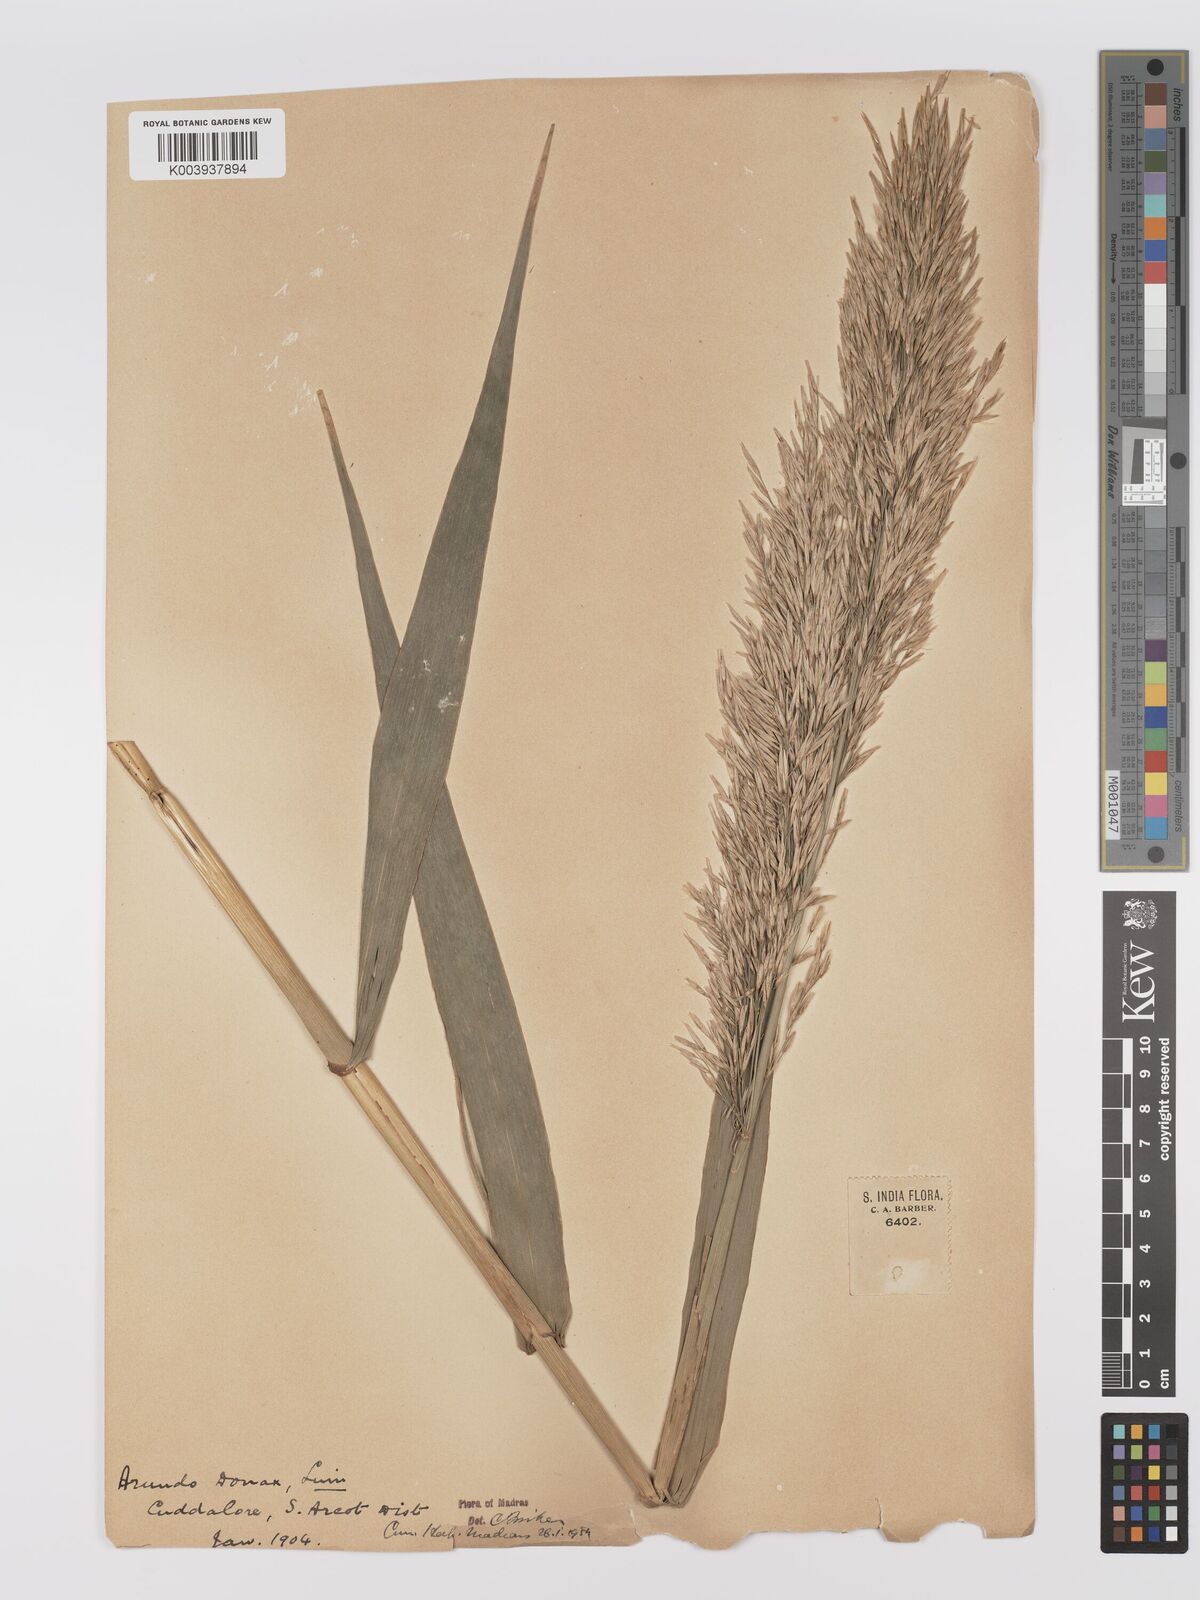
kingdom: Plantae
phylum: Tracheophyta
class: Liliopsida
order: Poales
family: Poaceae
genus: Arundo
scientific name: Arundo
